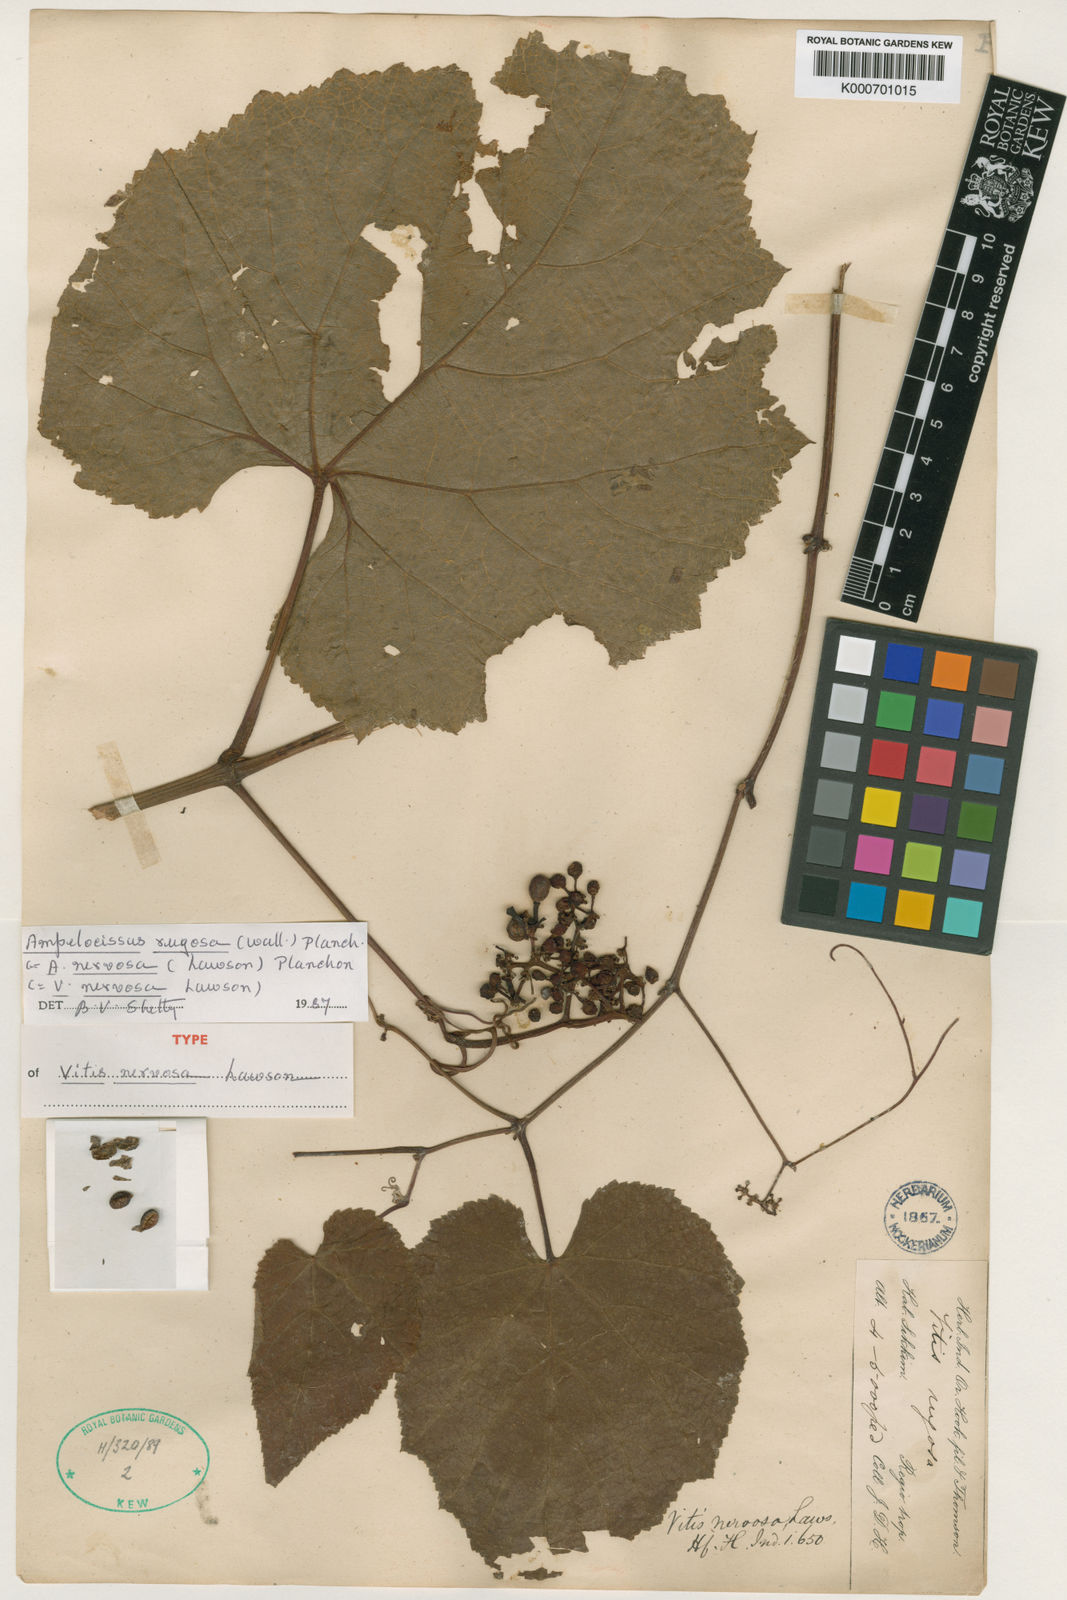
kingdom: Plantae
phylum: Tracheophyta
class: Magnoliopsida
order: Vitales
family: Vitaceae
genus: Ampelocissus
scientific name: Ampelocissus rugosa
